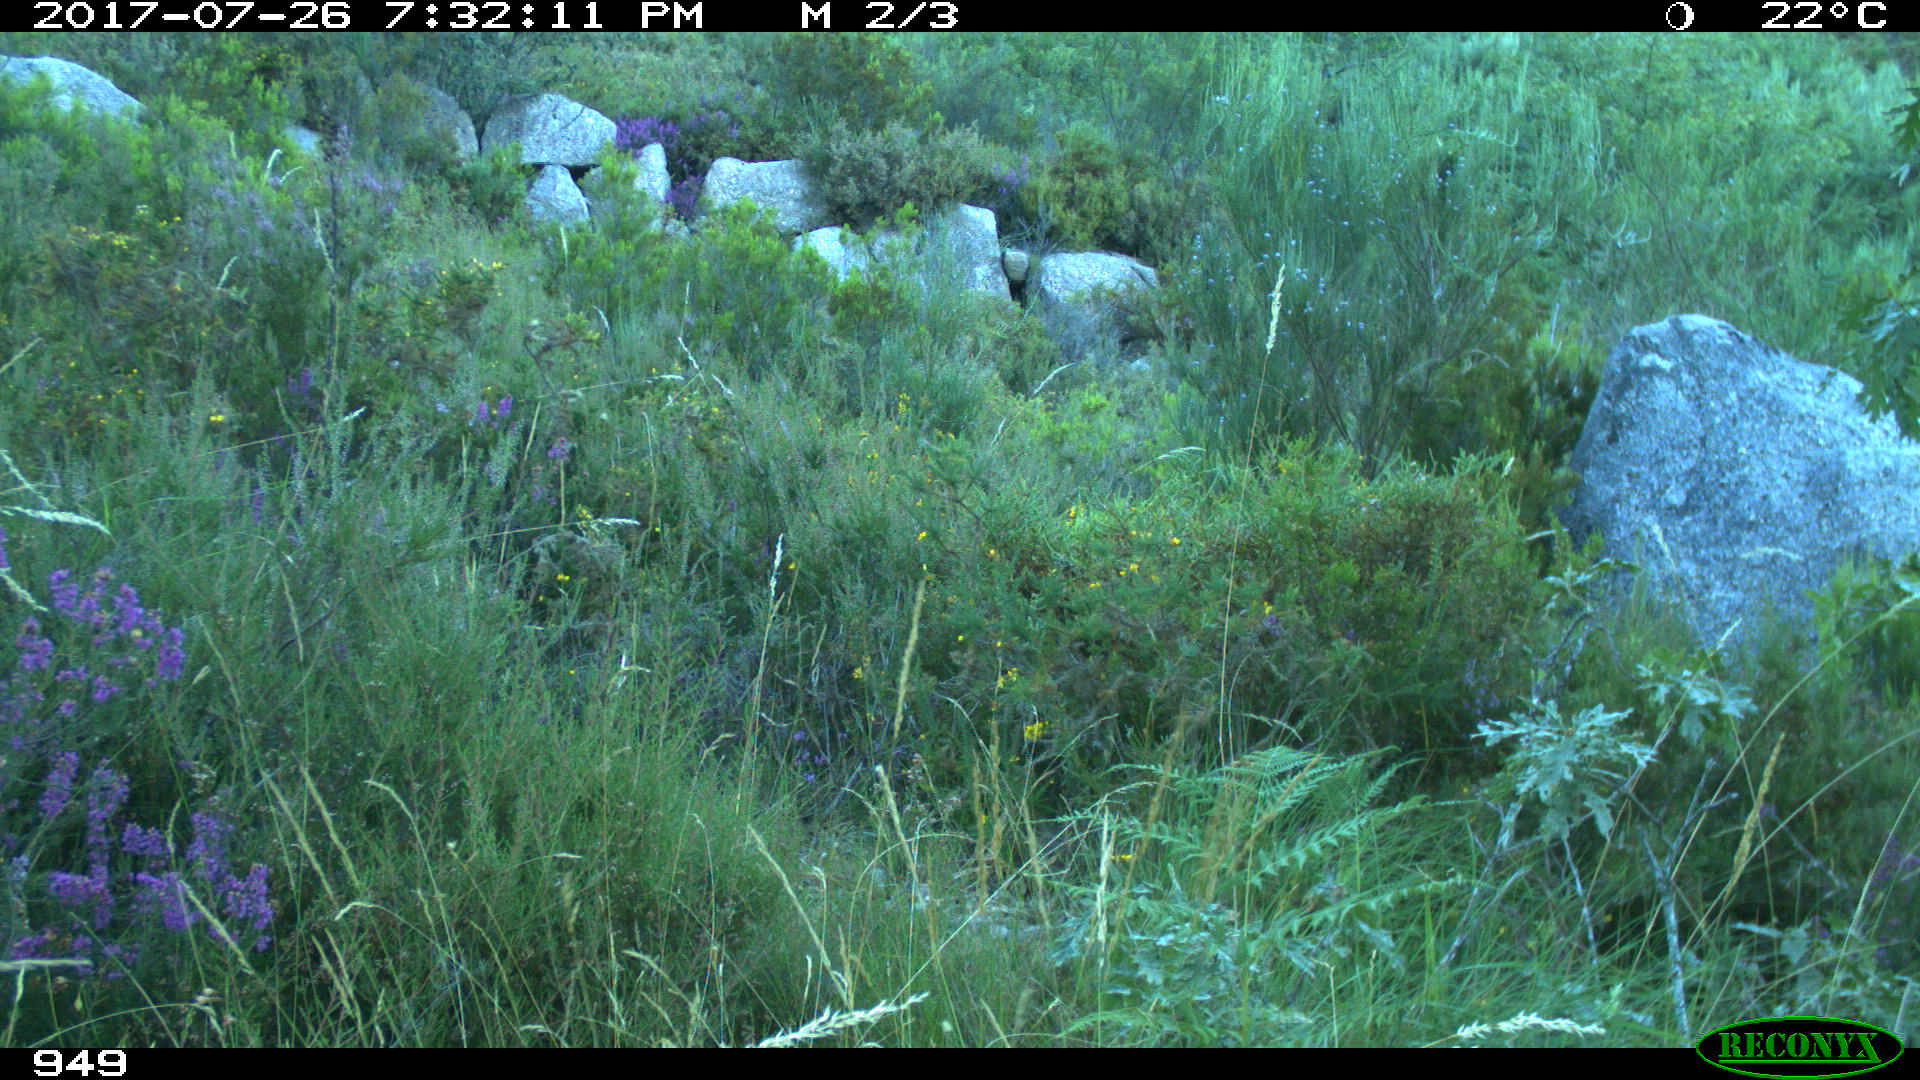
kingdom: Animalia
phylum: Chordata
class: Mammalia
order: Artiodactyla
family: Suidae
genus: Sus
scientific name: Sus scrofa
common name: Wild boar
